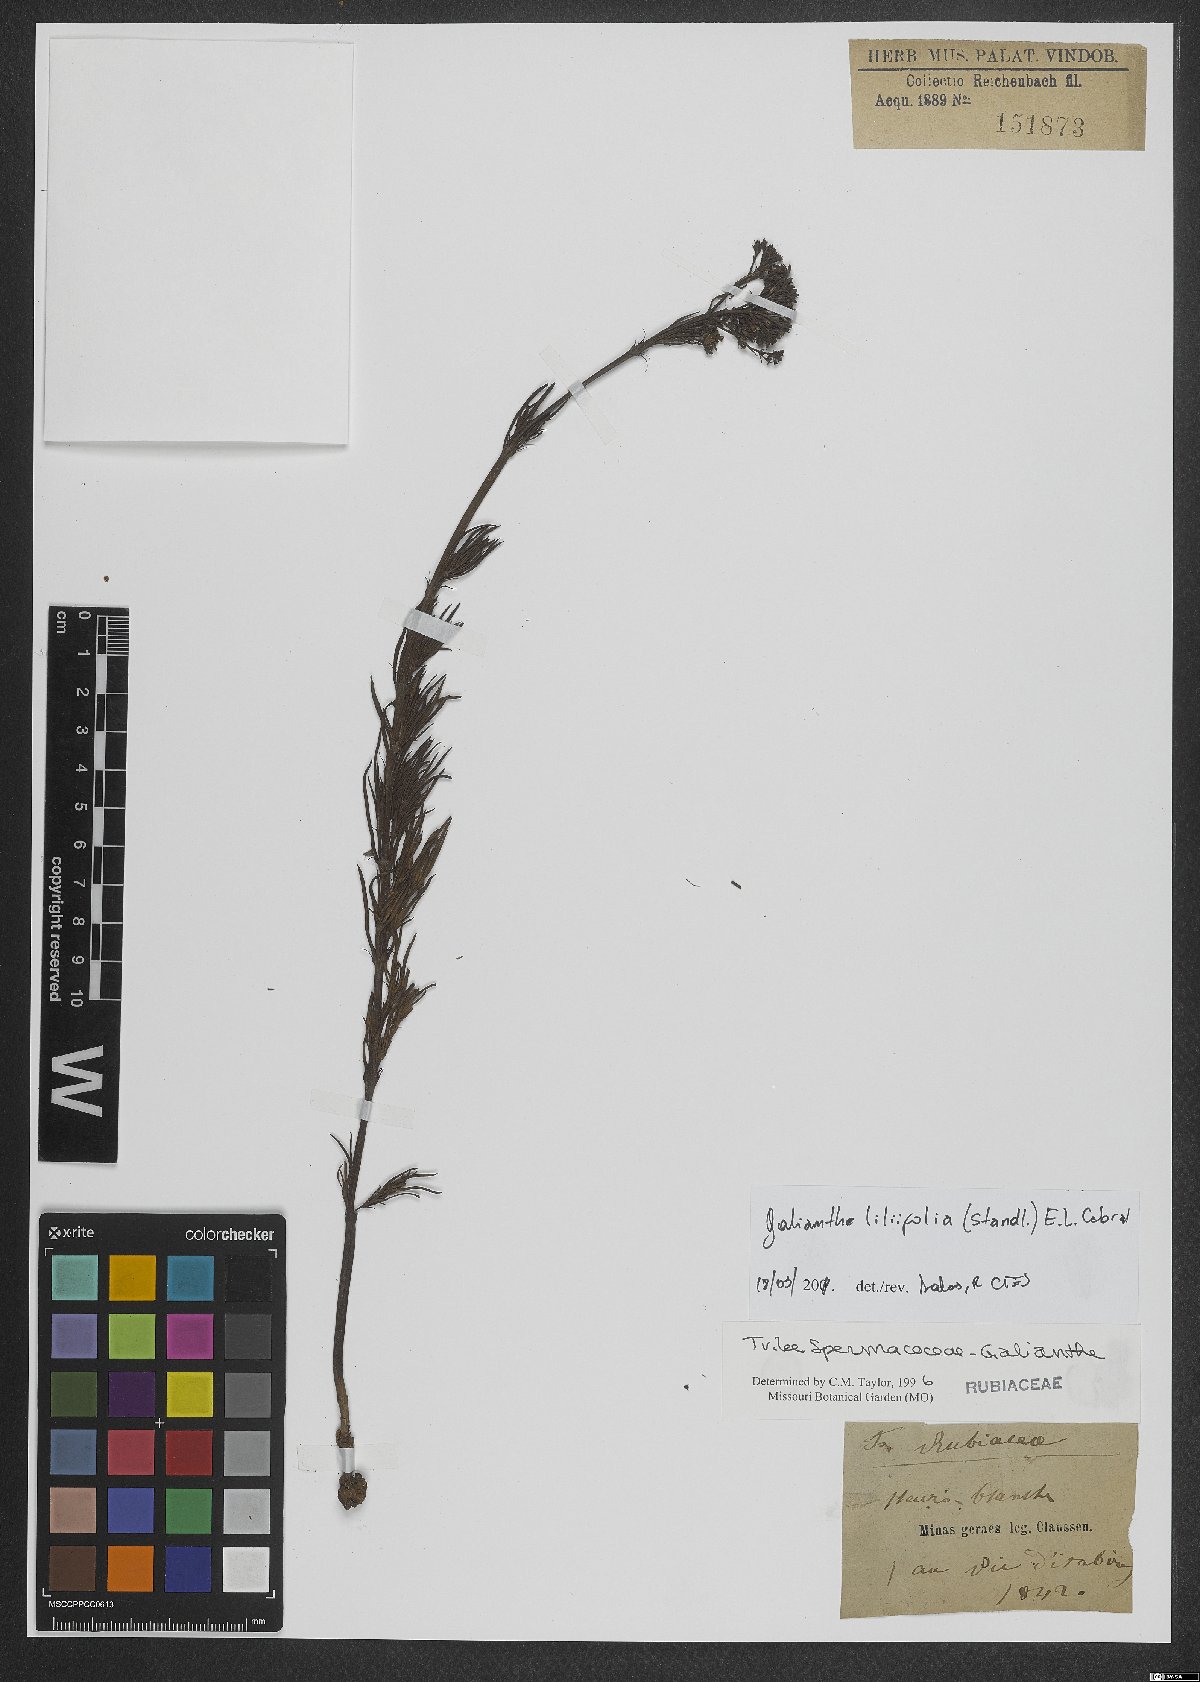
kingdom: Plantae
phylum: Tracheophyta
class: Magnoliopsida
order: Gentianales
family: Rubiaceae
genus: Galianthe
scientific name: Galianthe liliifolia
